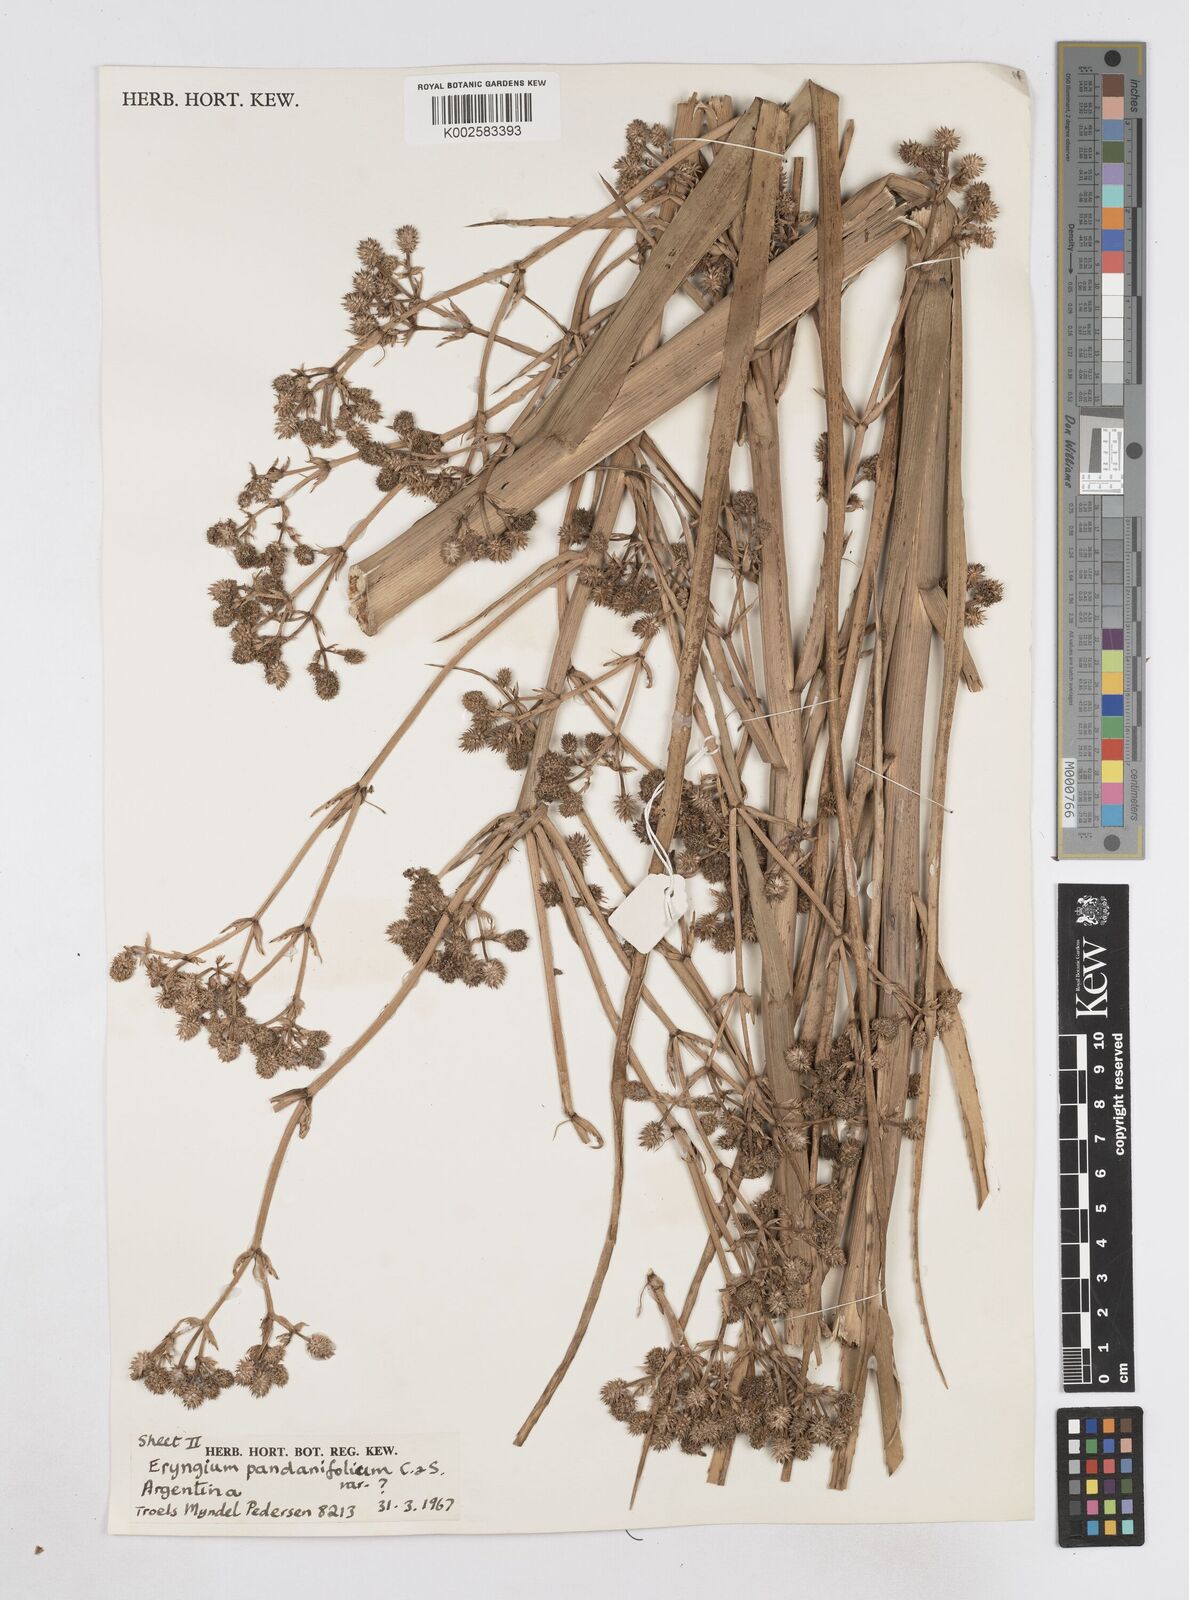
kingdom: Plantae
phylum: Tracheophyta
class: Magnoliopsida
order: Apiales
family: Apiaceae
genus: Eryngium
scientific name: Eryngium pandanifolium
